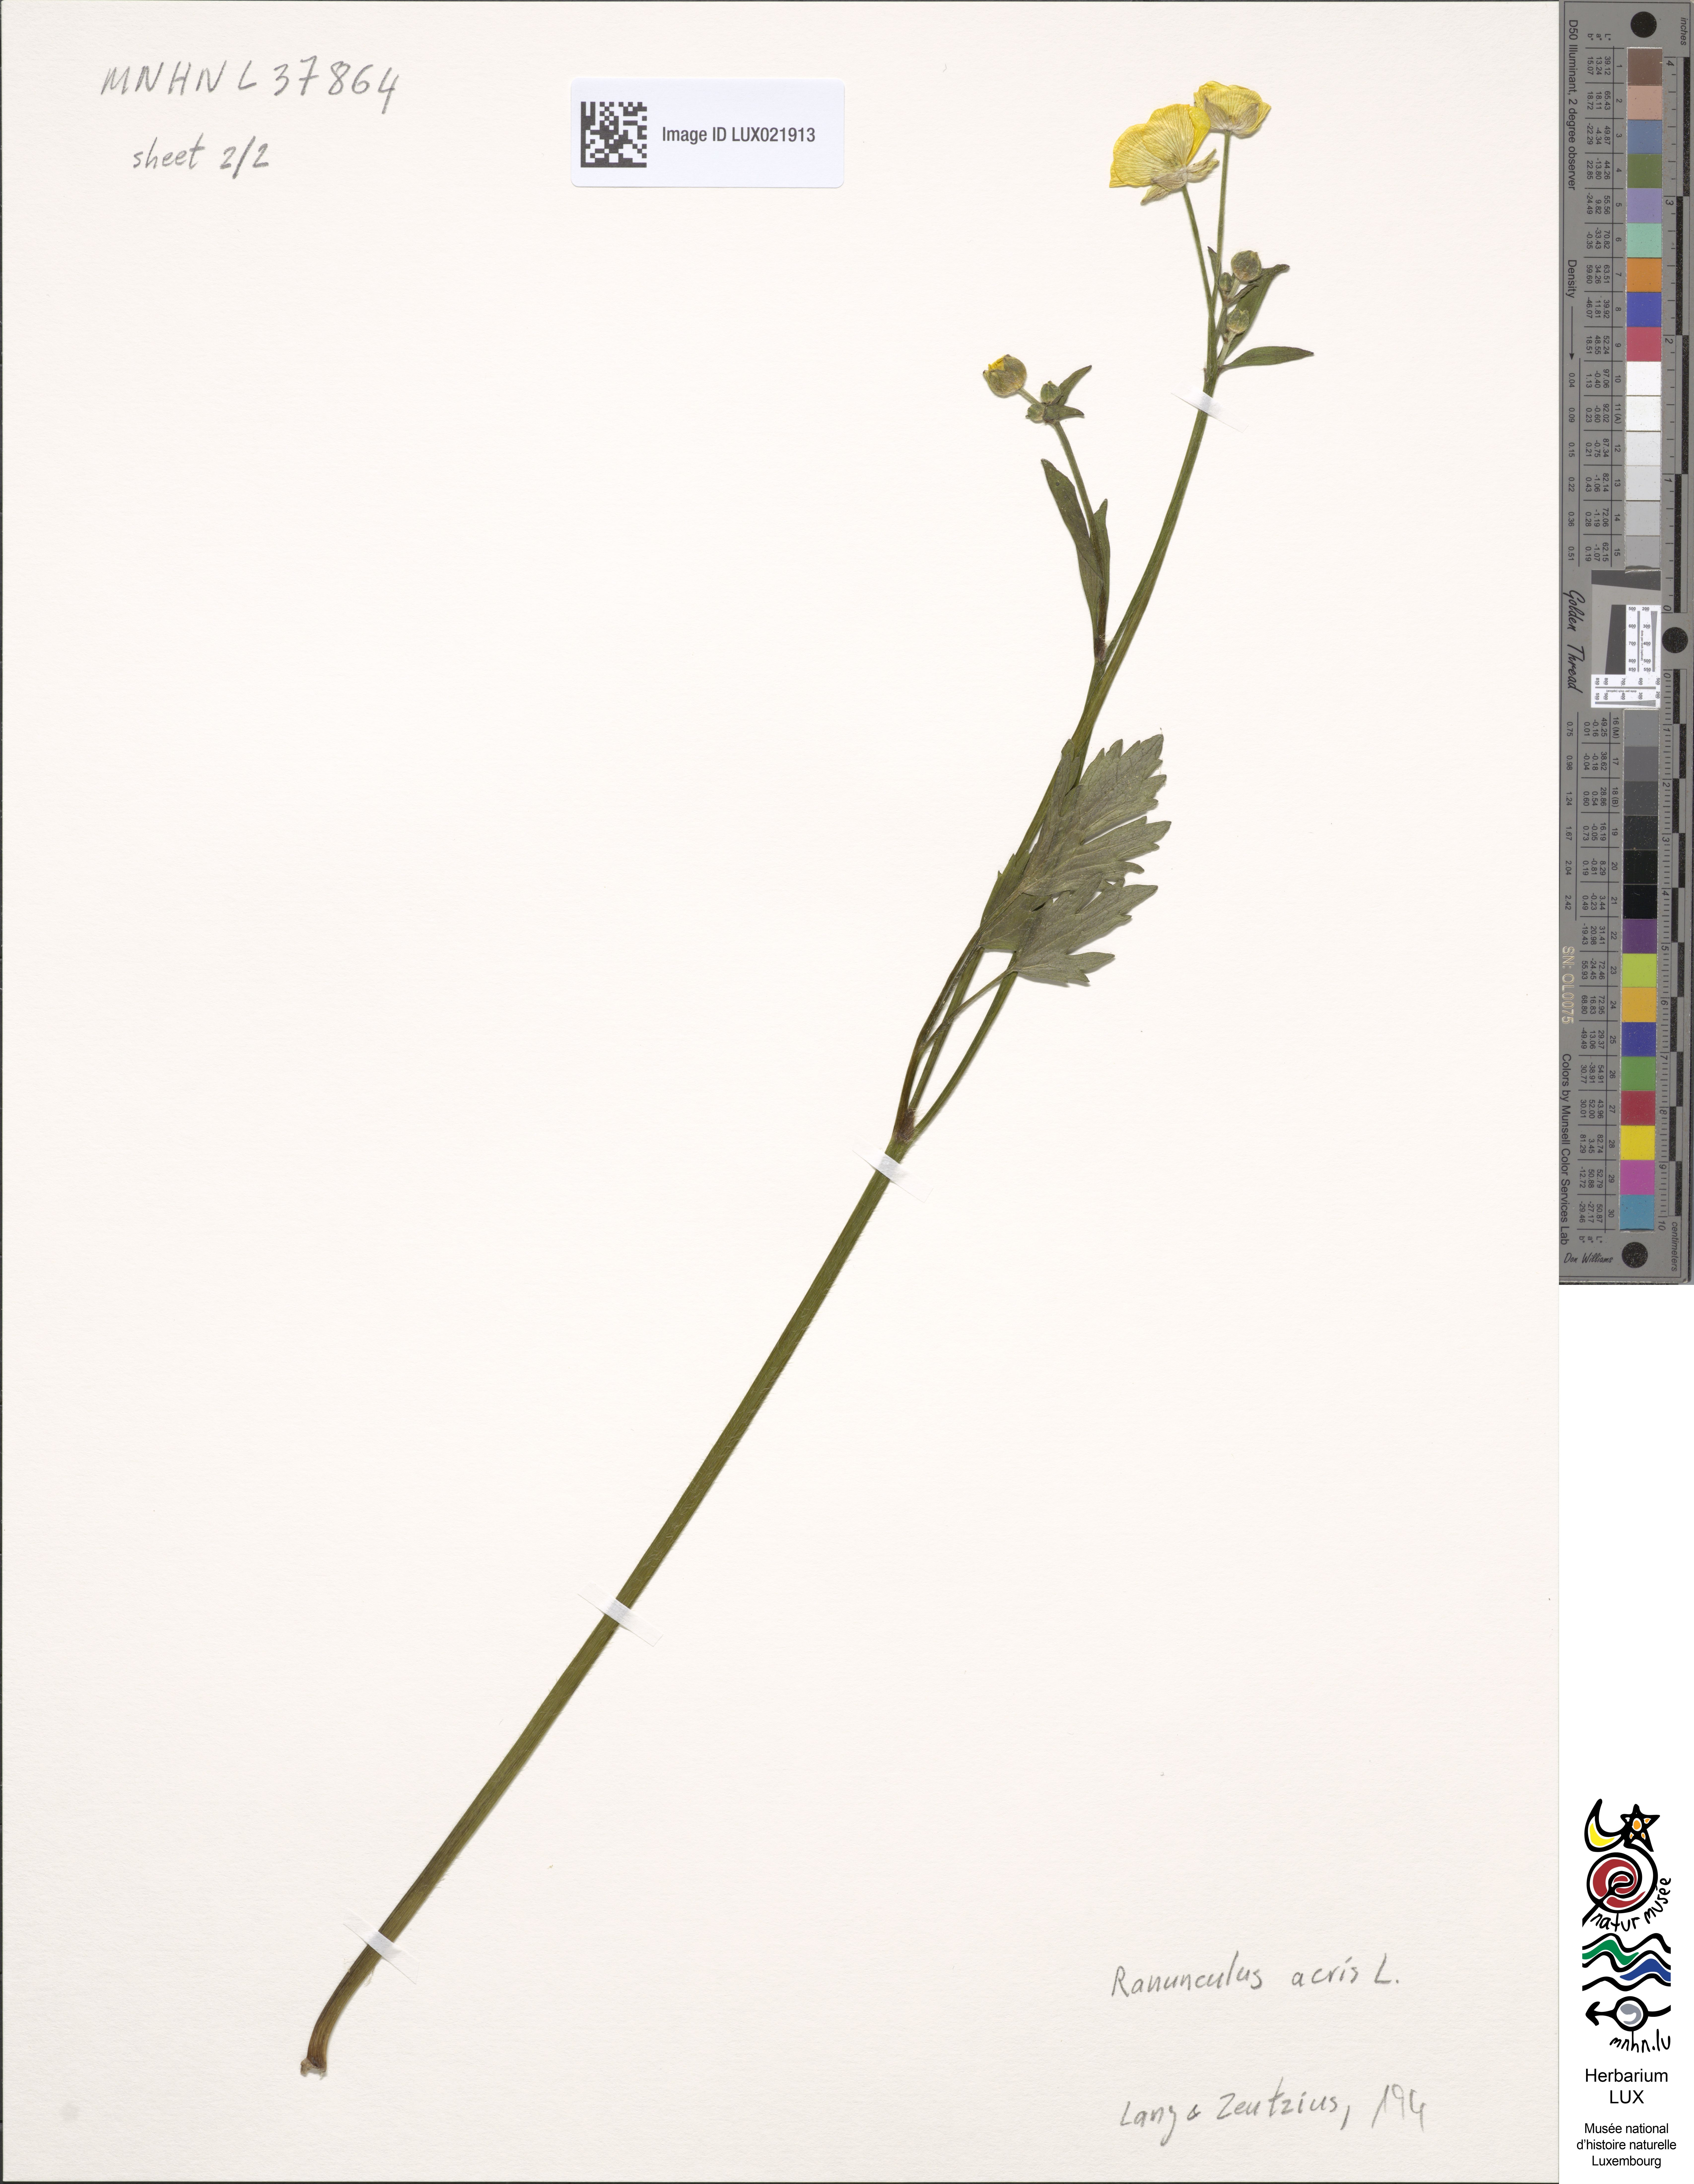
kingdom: Plantae
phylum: Tracheophyta
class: Magnoliopsida
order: Ranunculales
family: Ranunculaceae
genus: Ranunculus
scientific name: Ranunculus acris
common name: Meadow buttercup
